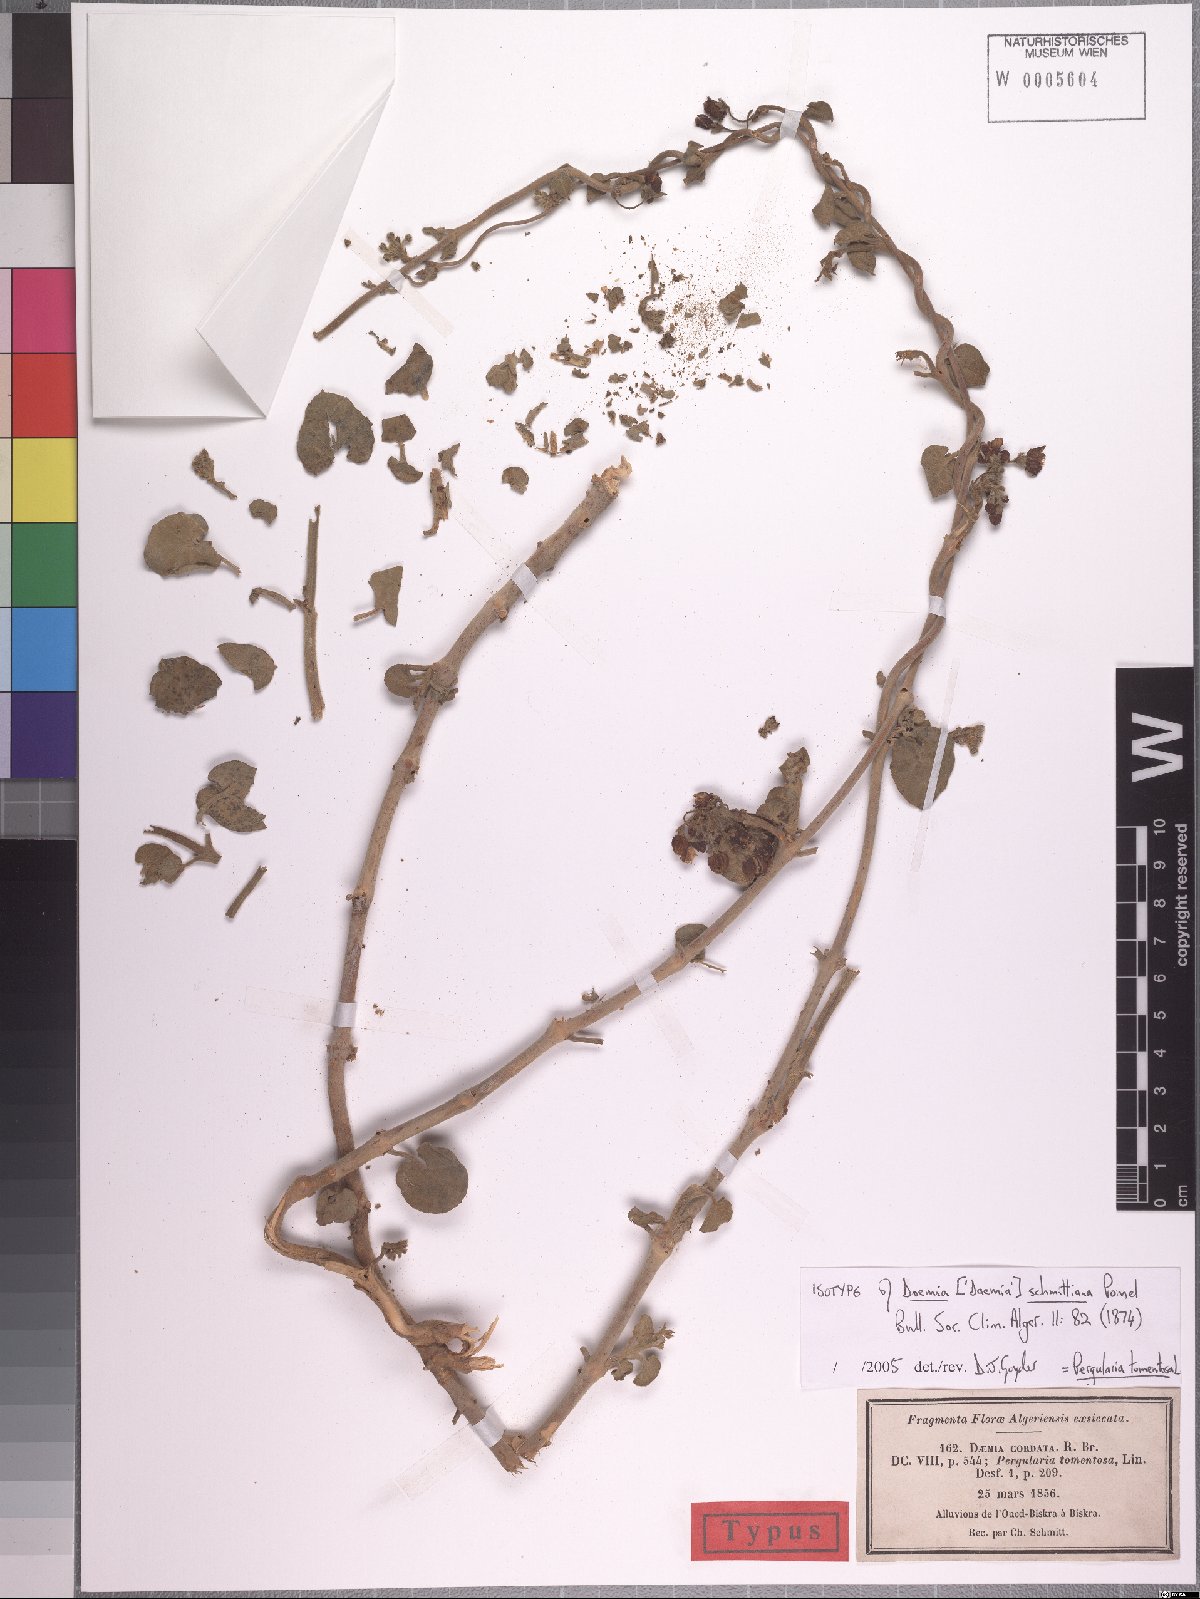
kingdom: Plantae
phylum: Tracheophyta
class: Magnoliopsida
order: Gentianales
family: Apocynaceae
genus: Pergularia
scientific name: Pergularia tomentosa
